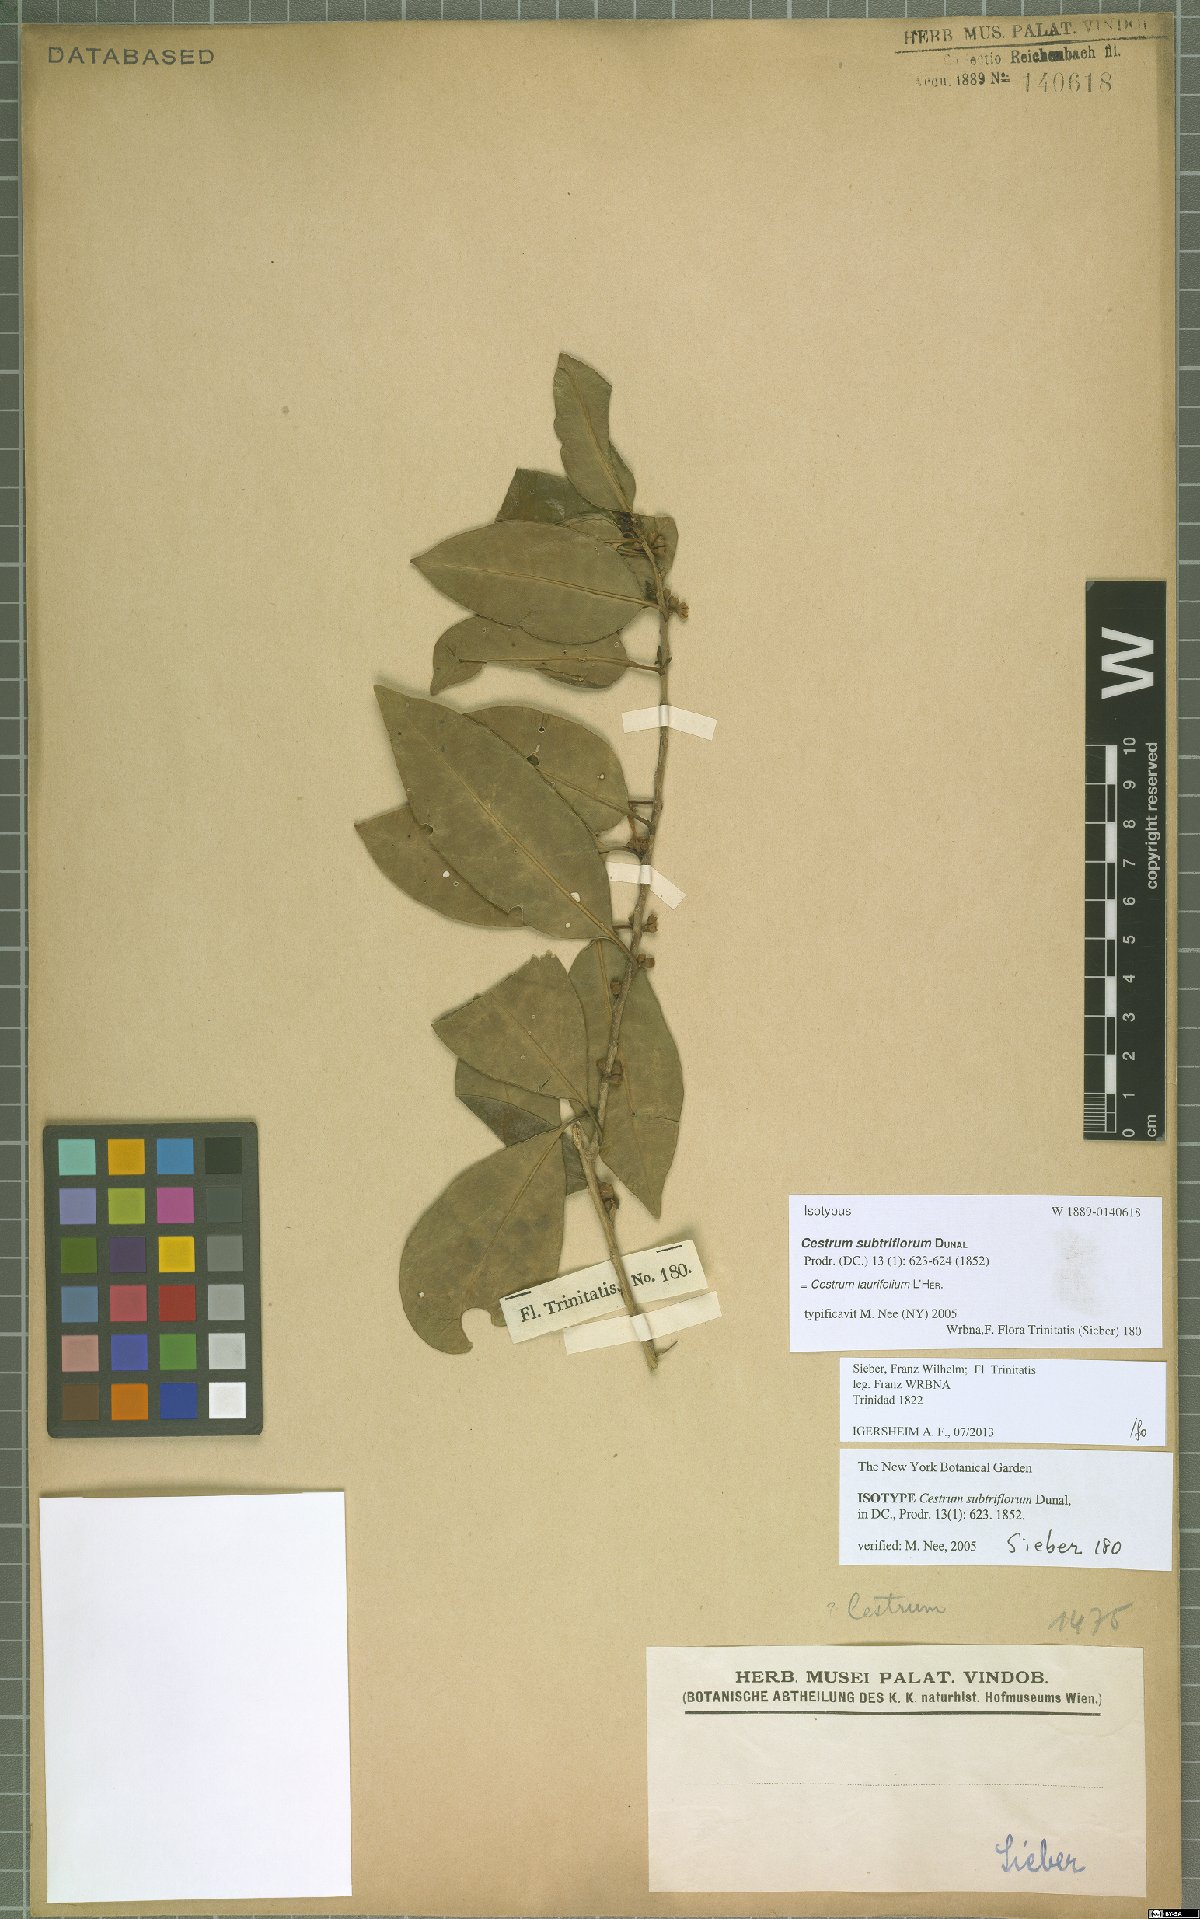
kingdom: Plantae
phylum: Tracheophyta
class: Magnoliopsida
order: Solanales
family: Solanaceae
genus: Cestrum
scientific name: Cestrum
